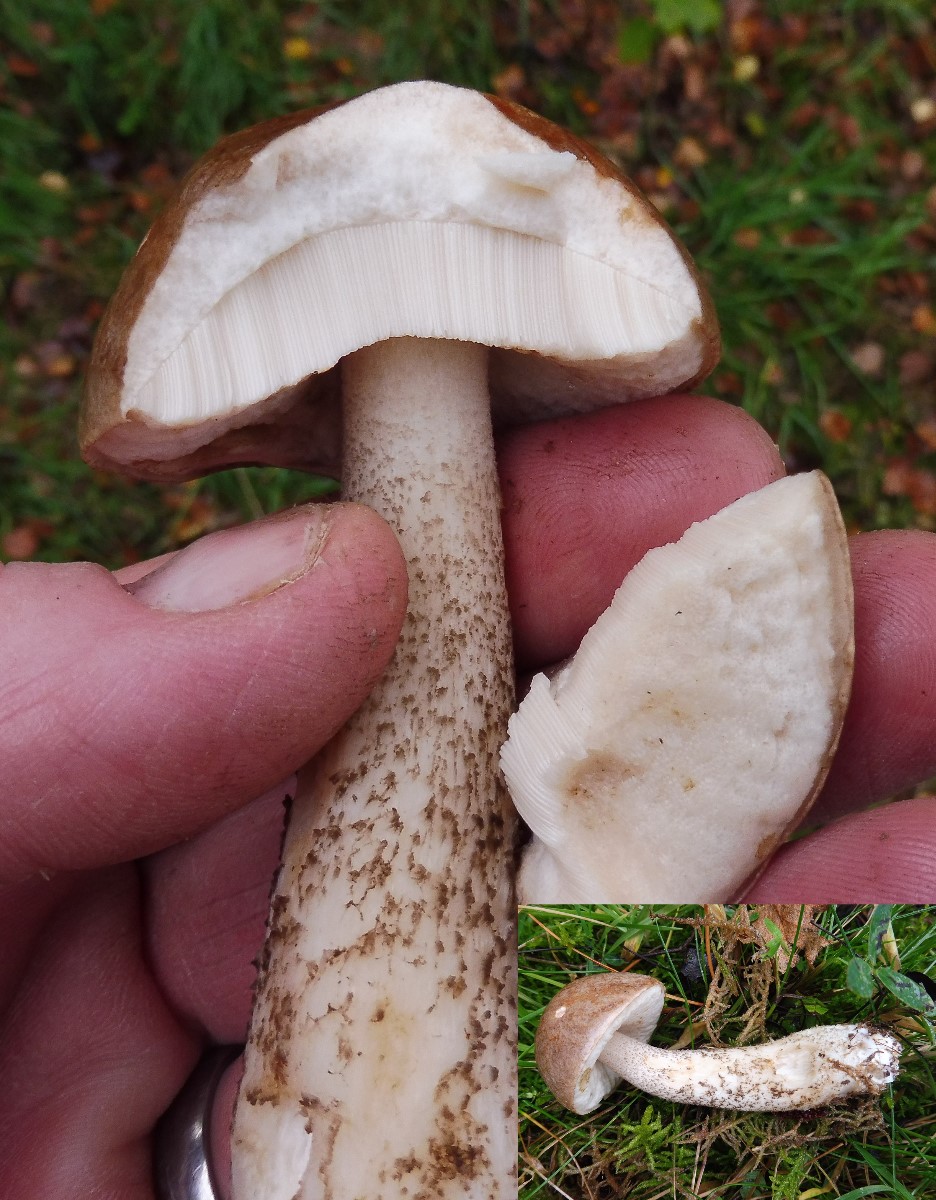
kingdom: Fungi
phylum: Basidiomycota
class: Agaricomycetes
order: Boletales
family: Boletaceae
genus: Leccinum
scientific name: Leccinum scabrum
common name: brun skælrørhat
